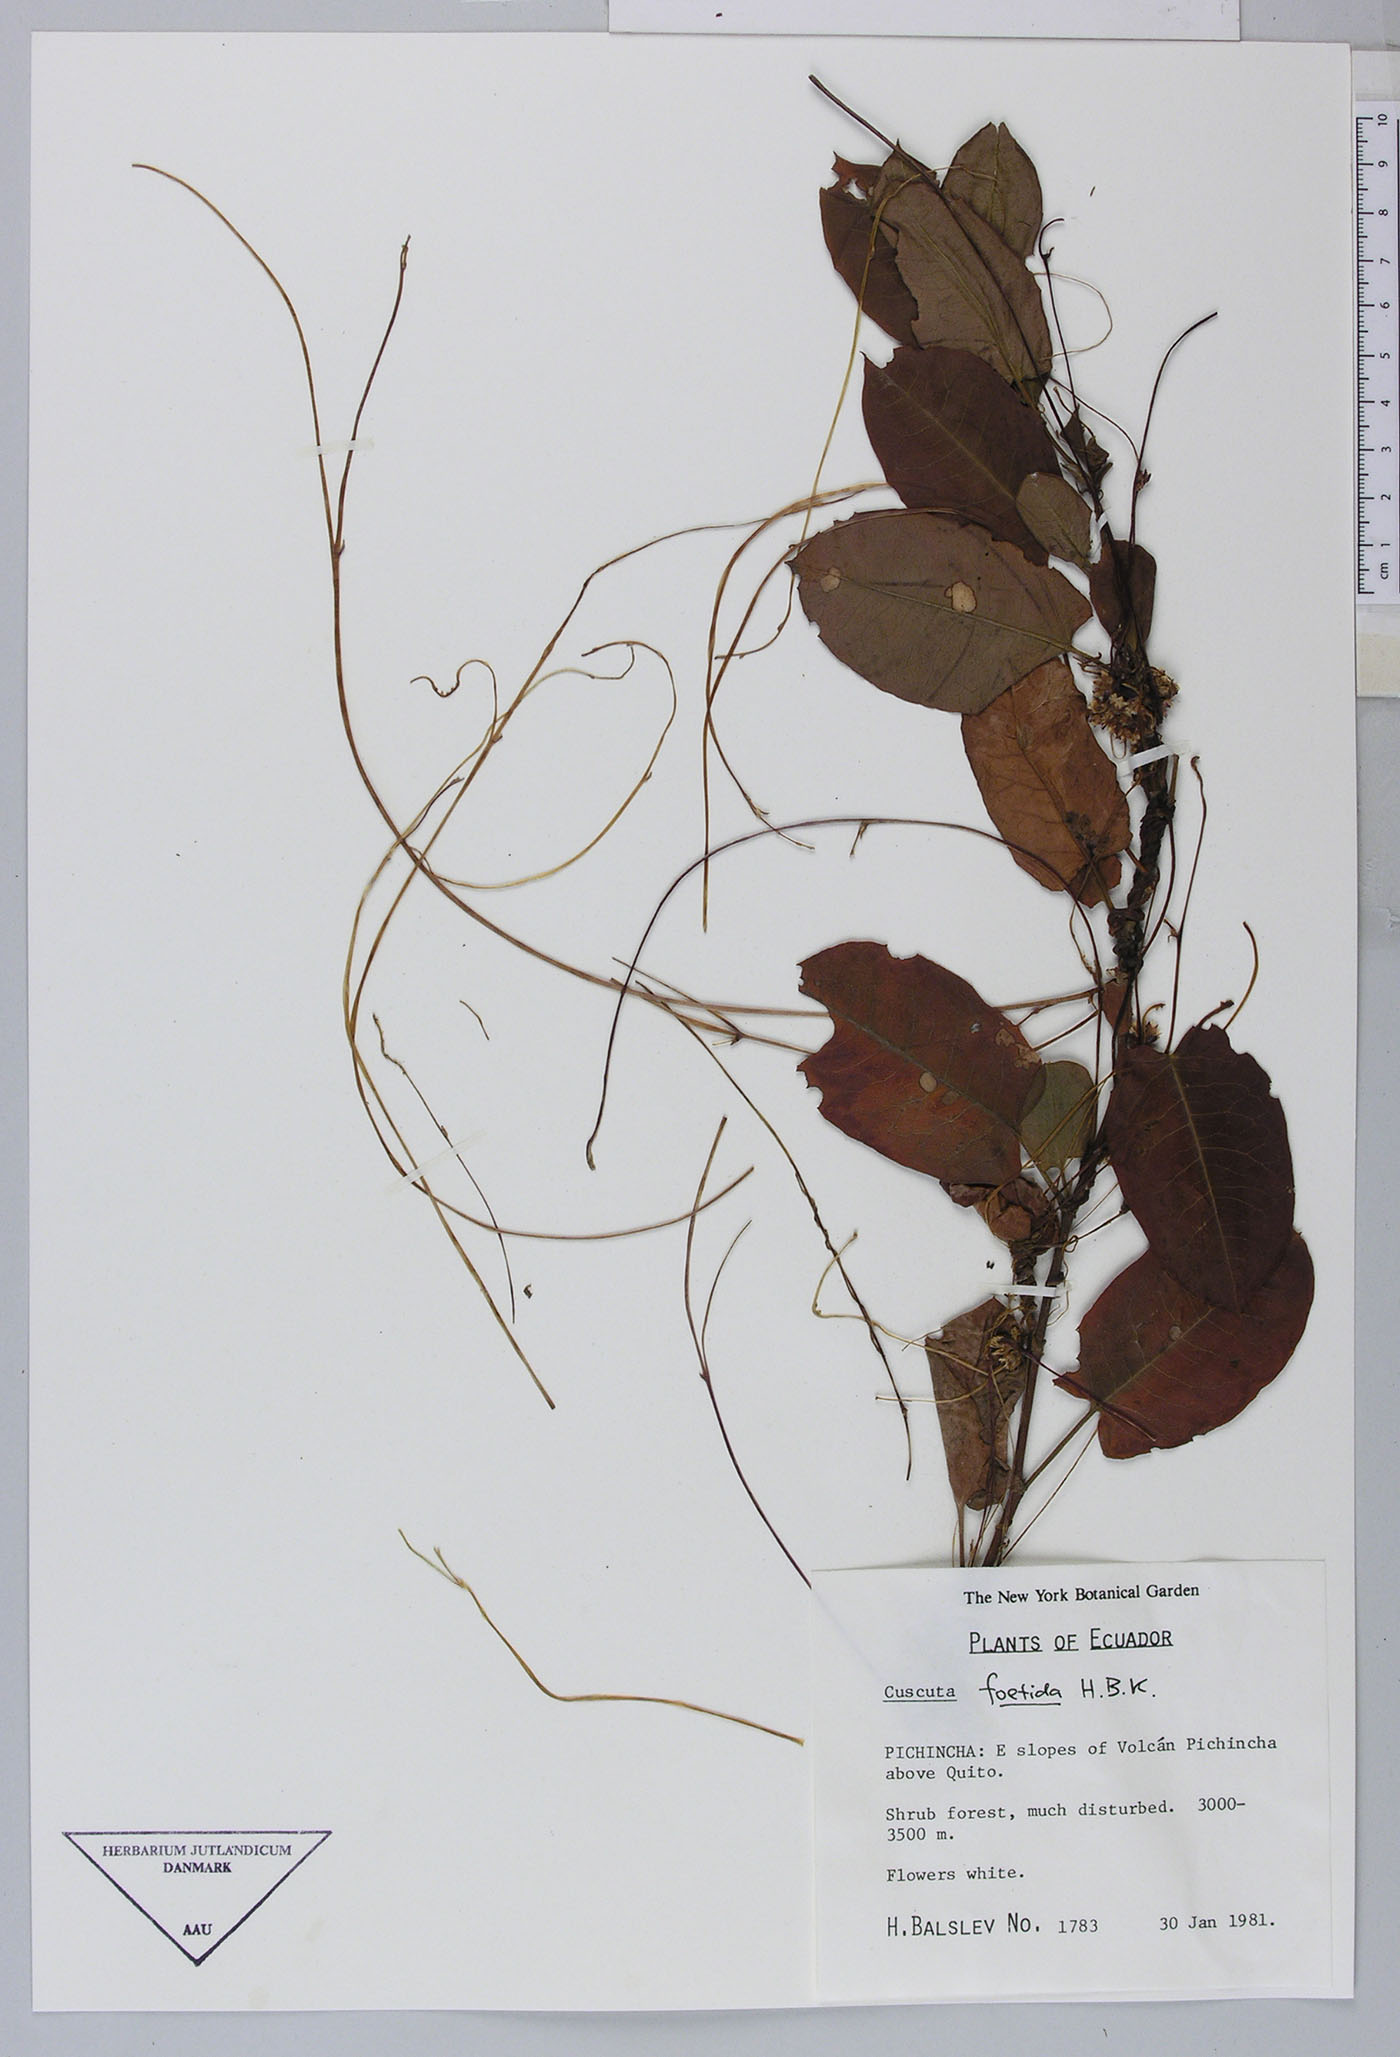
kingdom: Plantae
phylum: Tracheophyta
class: Magnoliopsida
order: Solanales
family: Convolvulaceae
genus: Cuscuta
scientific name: Cuscuta foetida
